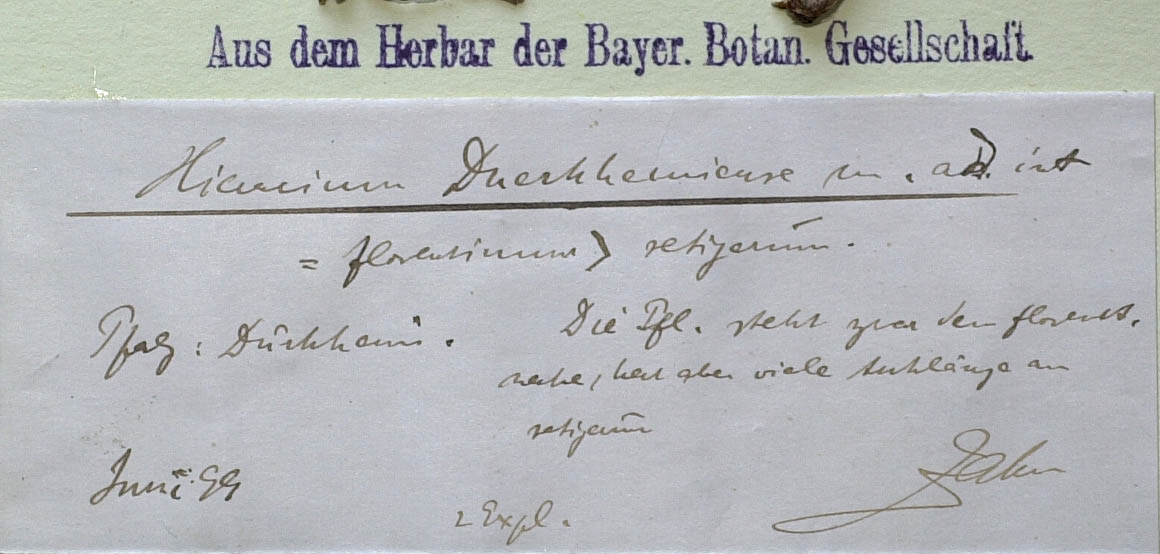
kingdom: Plantae
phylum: Tracheophyta
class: Magnoliopsida
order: Asterales
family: Asteraceae
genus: Pilosella
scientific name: Pilosella duerkhemiensis
